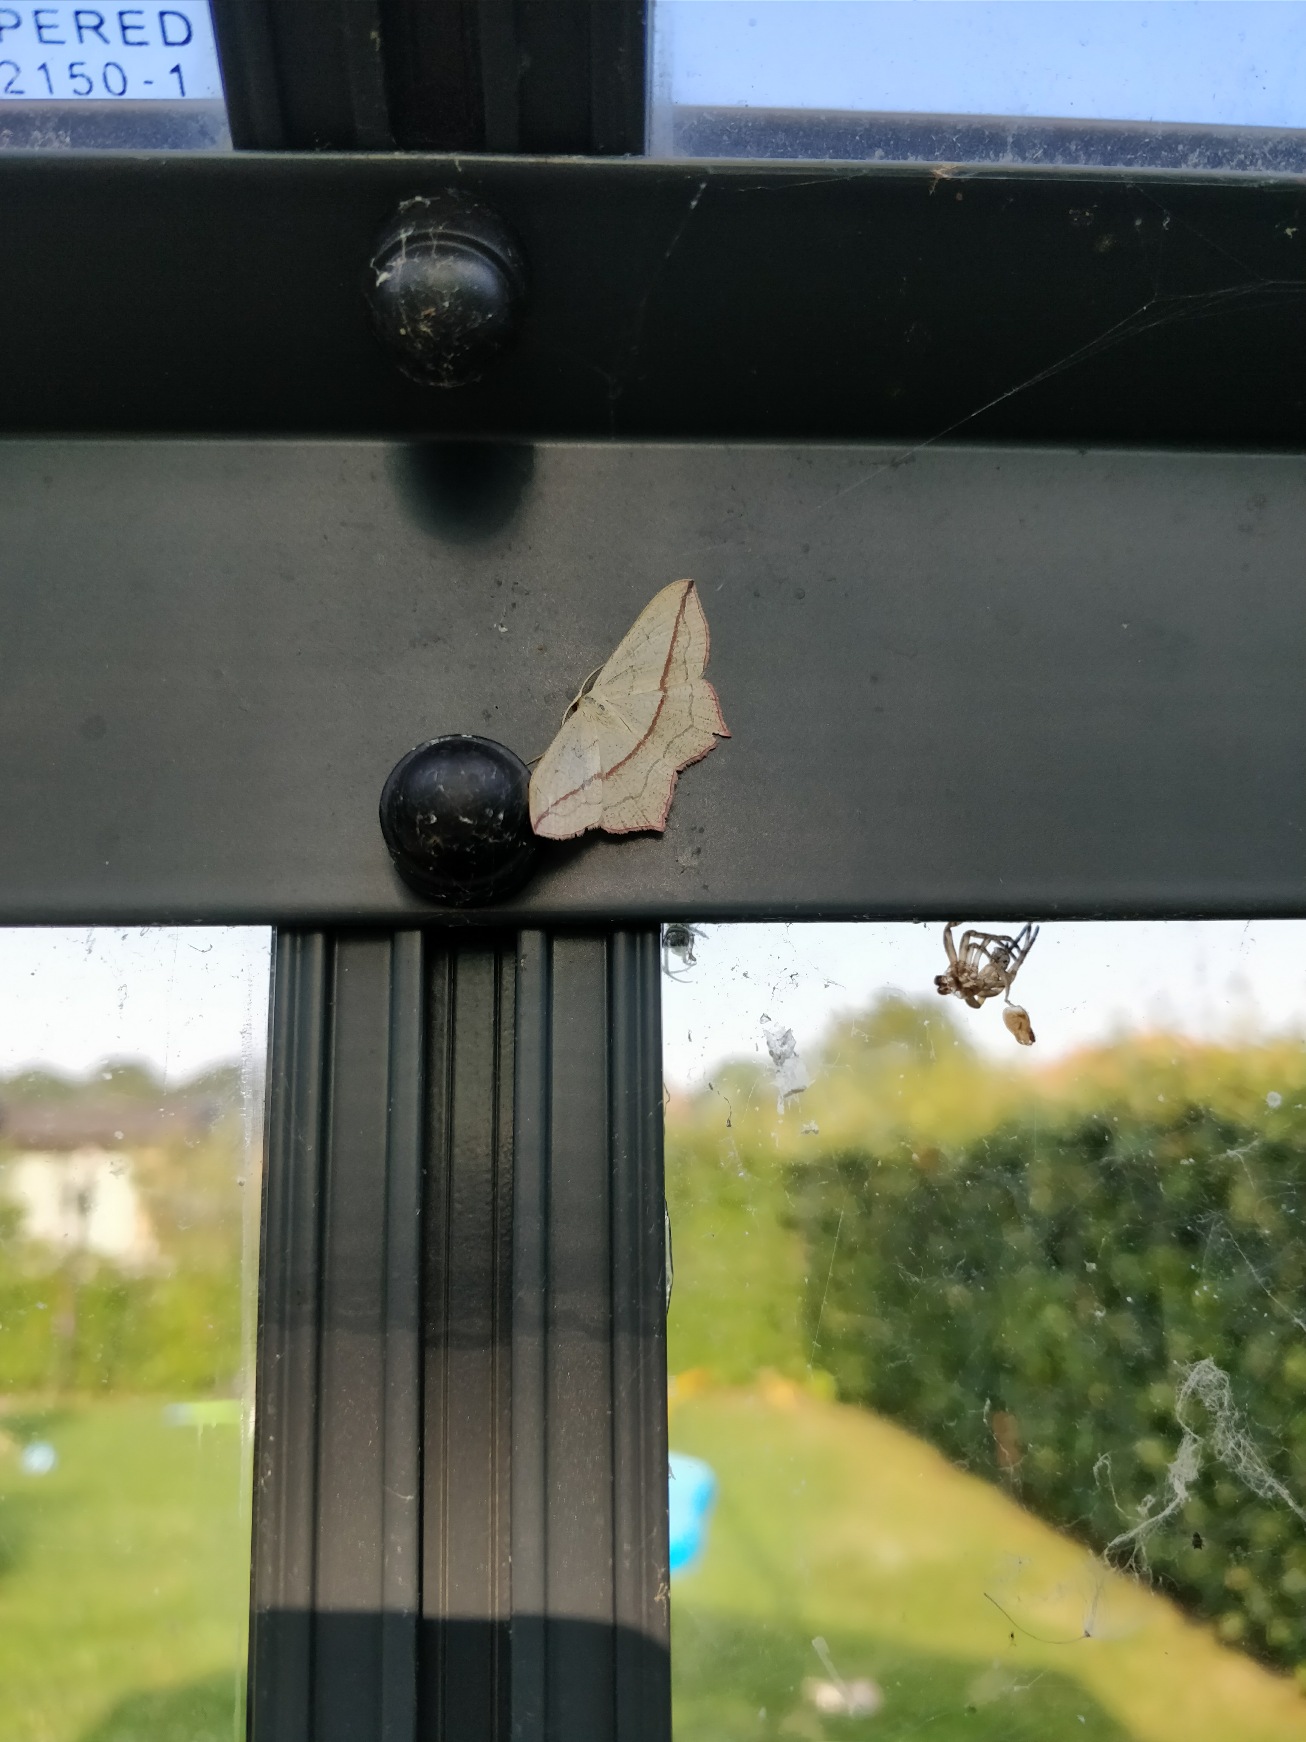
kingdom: Animalia
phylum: Arthropoda
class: Insecta
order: Lepidoptera
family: Geometridae
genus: Timandra
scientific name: Timandra comae
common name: Gul syremåler
